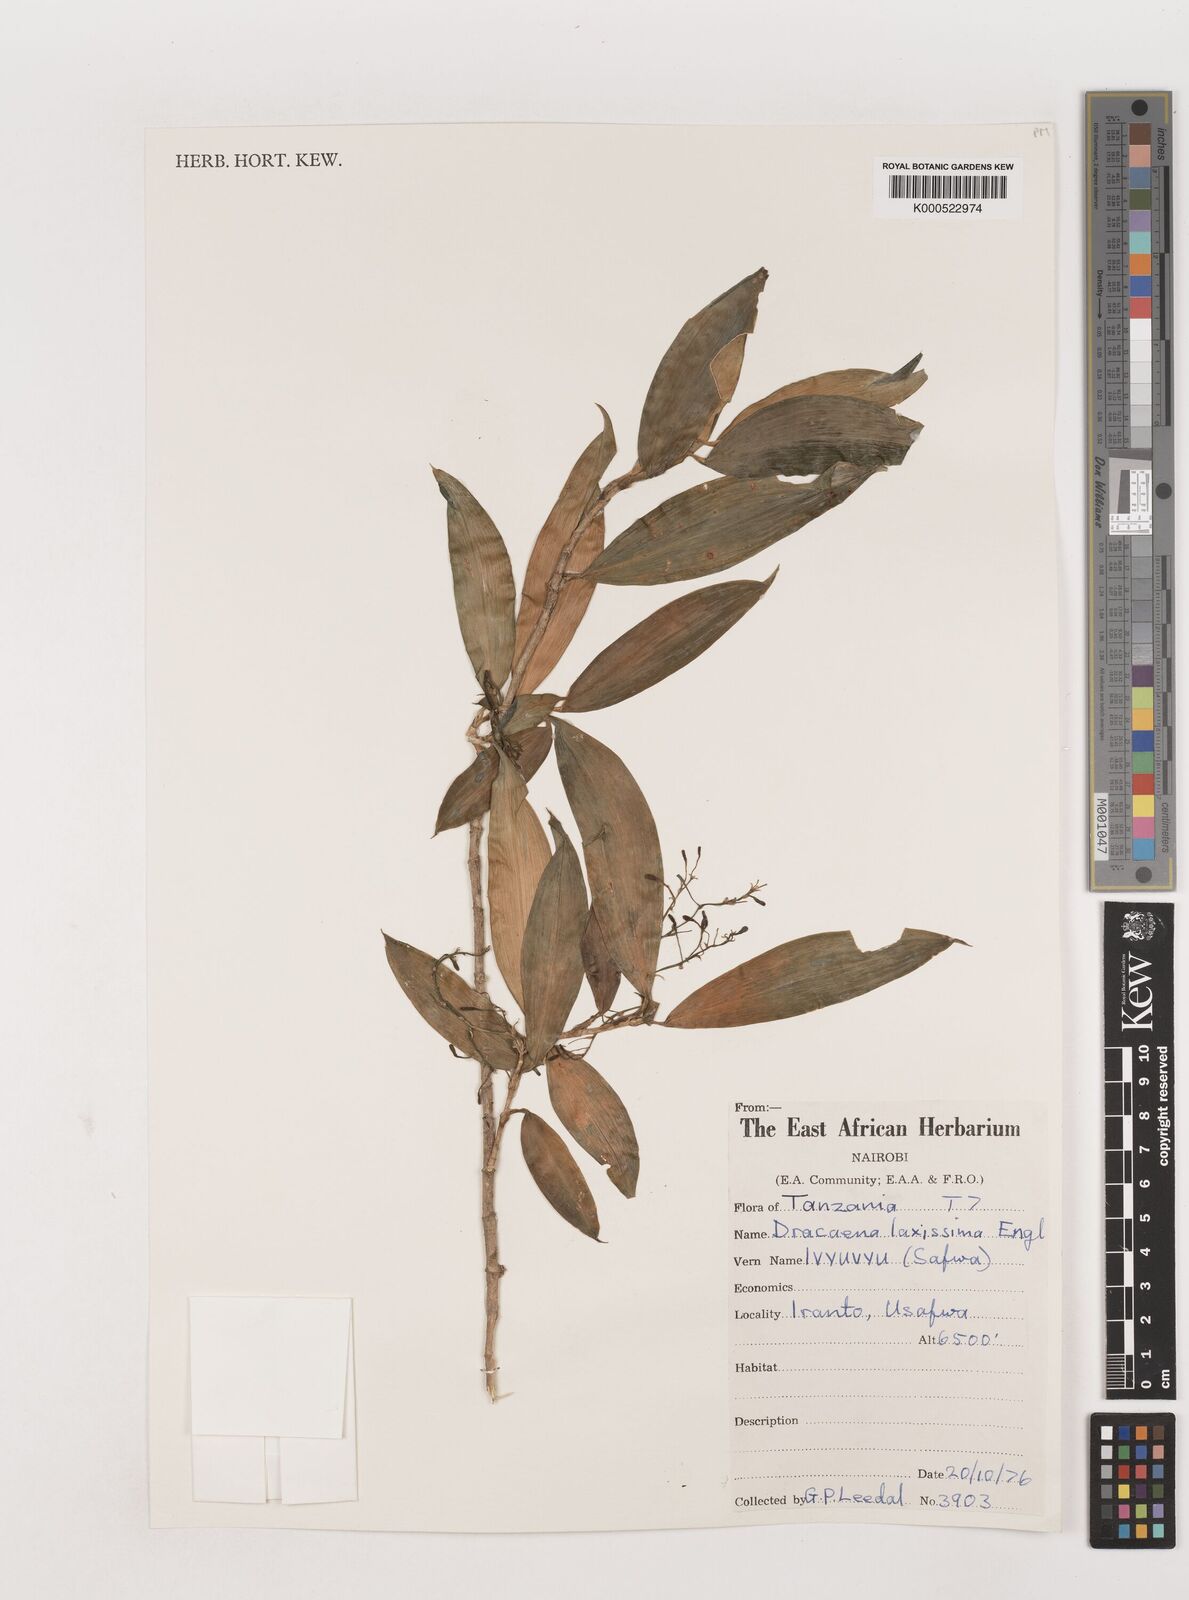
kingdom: Plantae
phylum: Tracheophyta
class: Liliopsida
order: Asparagales
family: Asparagaceae
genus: Dracaena
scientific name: Dracaena laxissima
